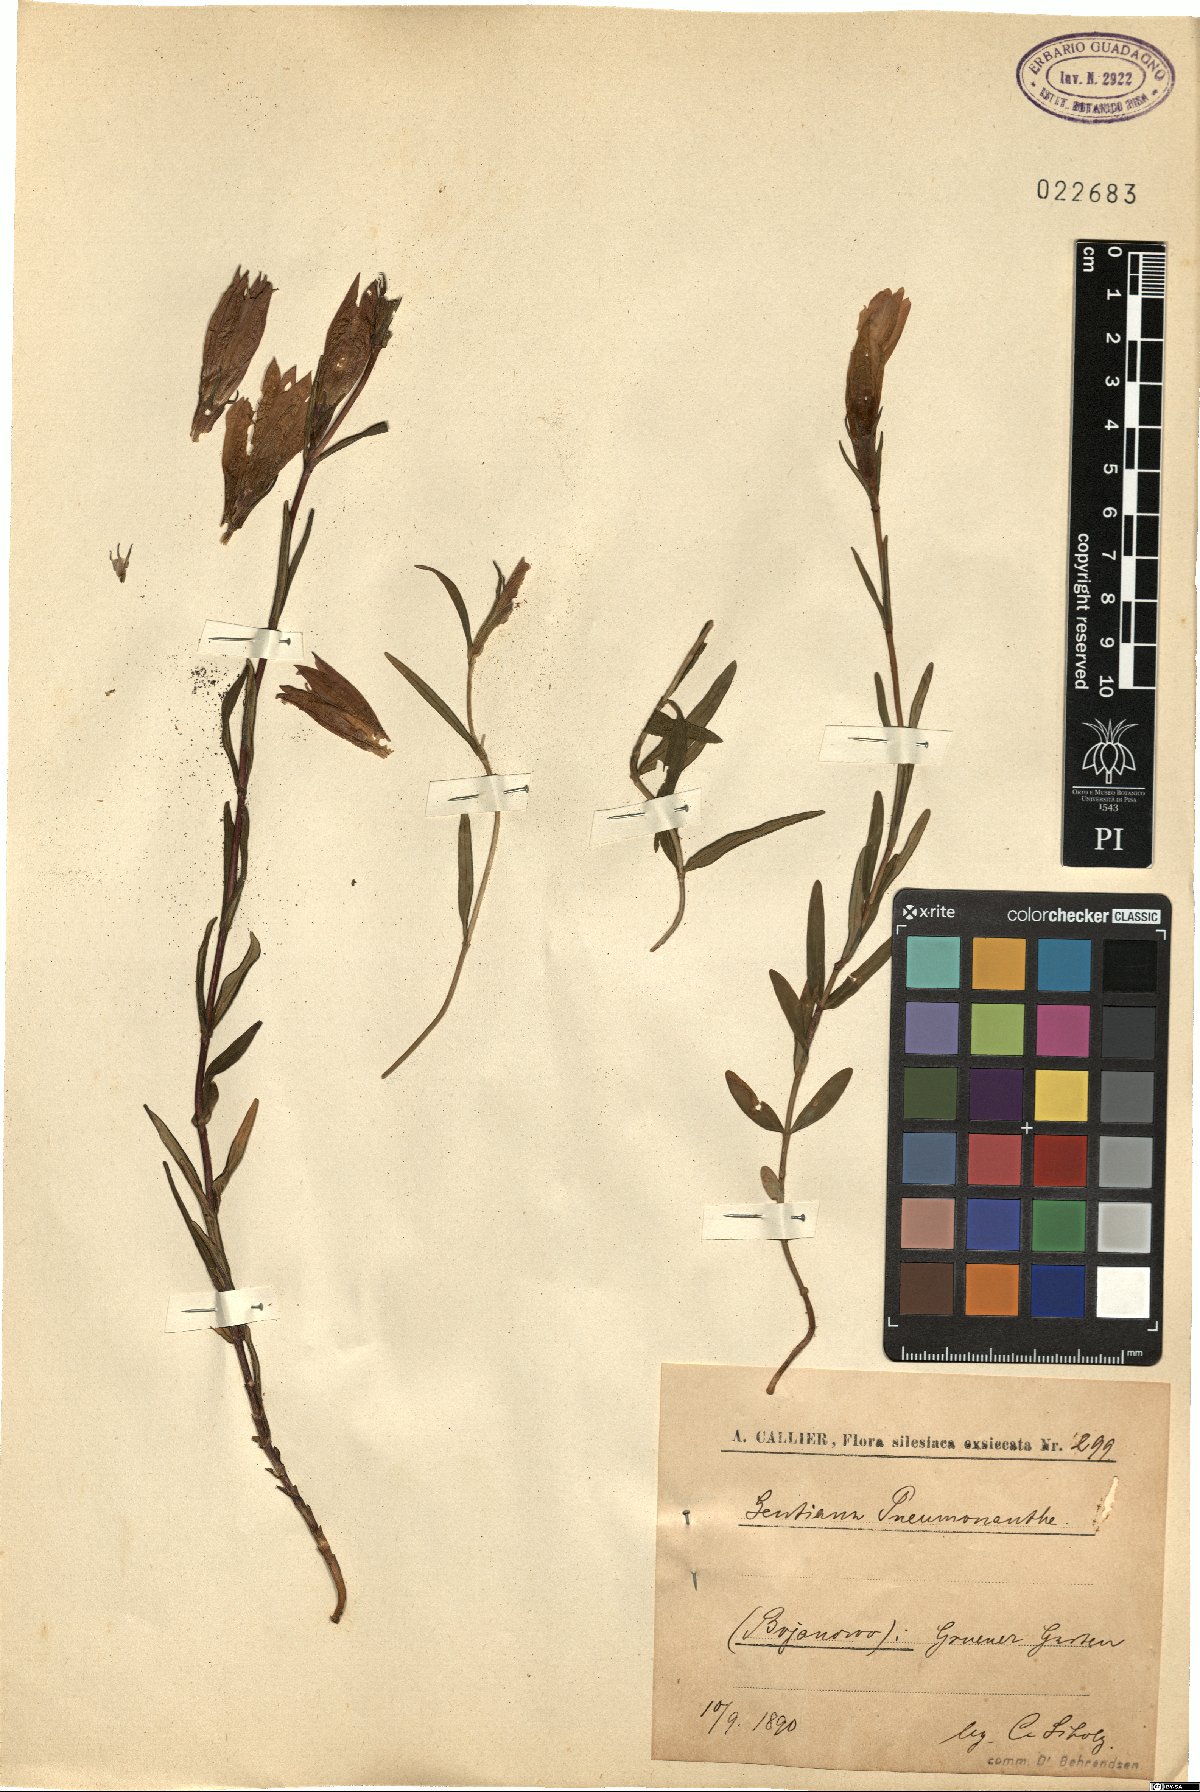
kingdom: Plantae
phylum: Tracheophyta
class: Magnoliopsida
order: Gentianales
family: Gentianaceae
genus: Gentiana
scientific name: Gentiana pneumonanthe
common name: Marsh gentian
